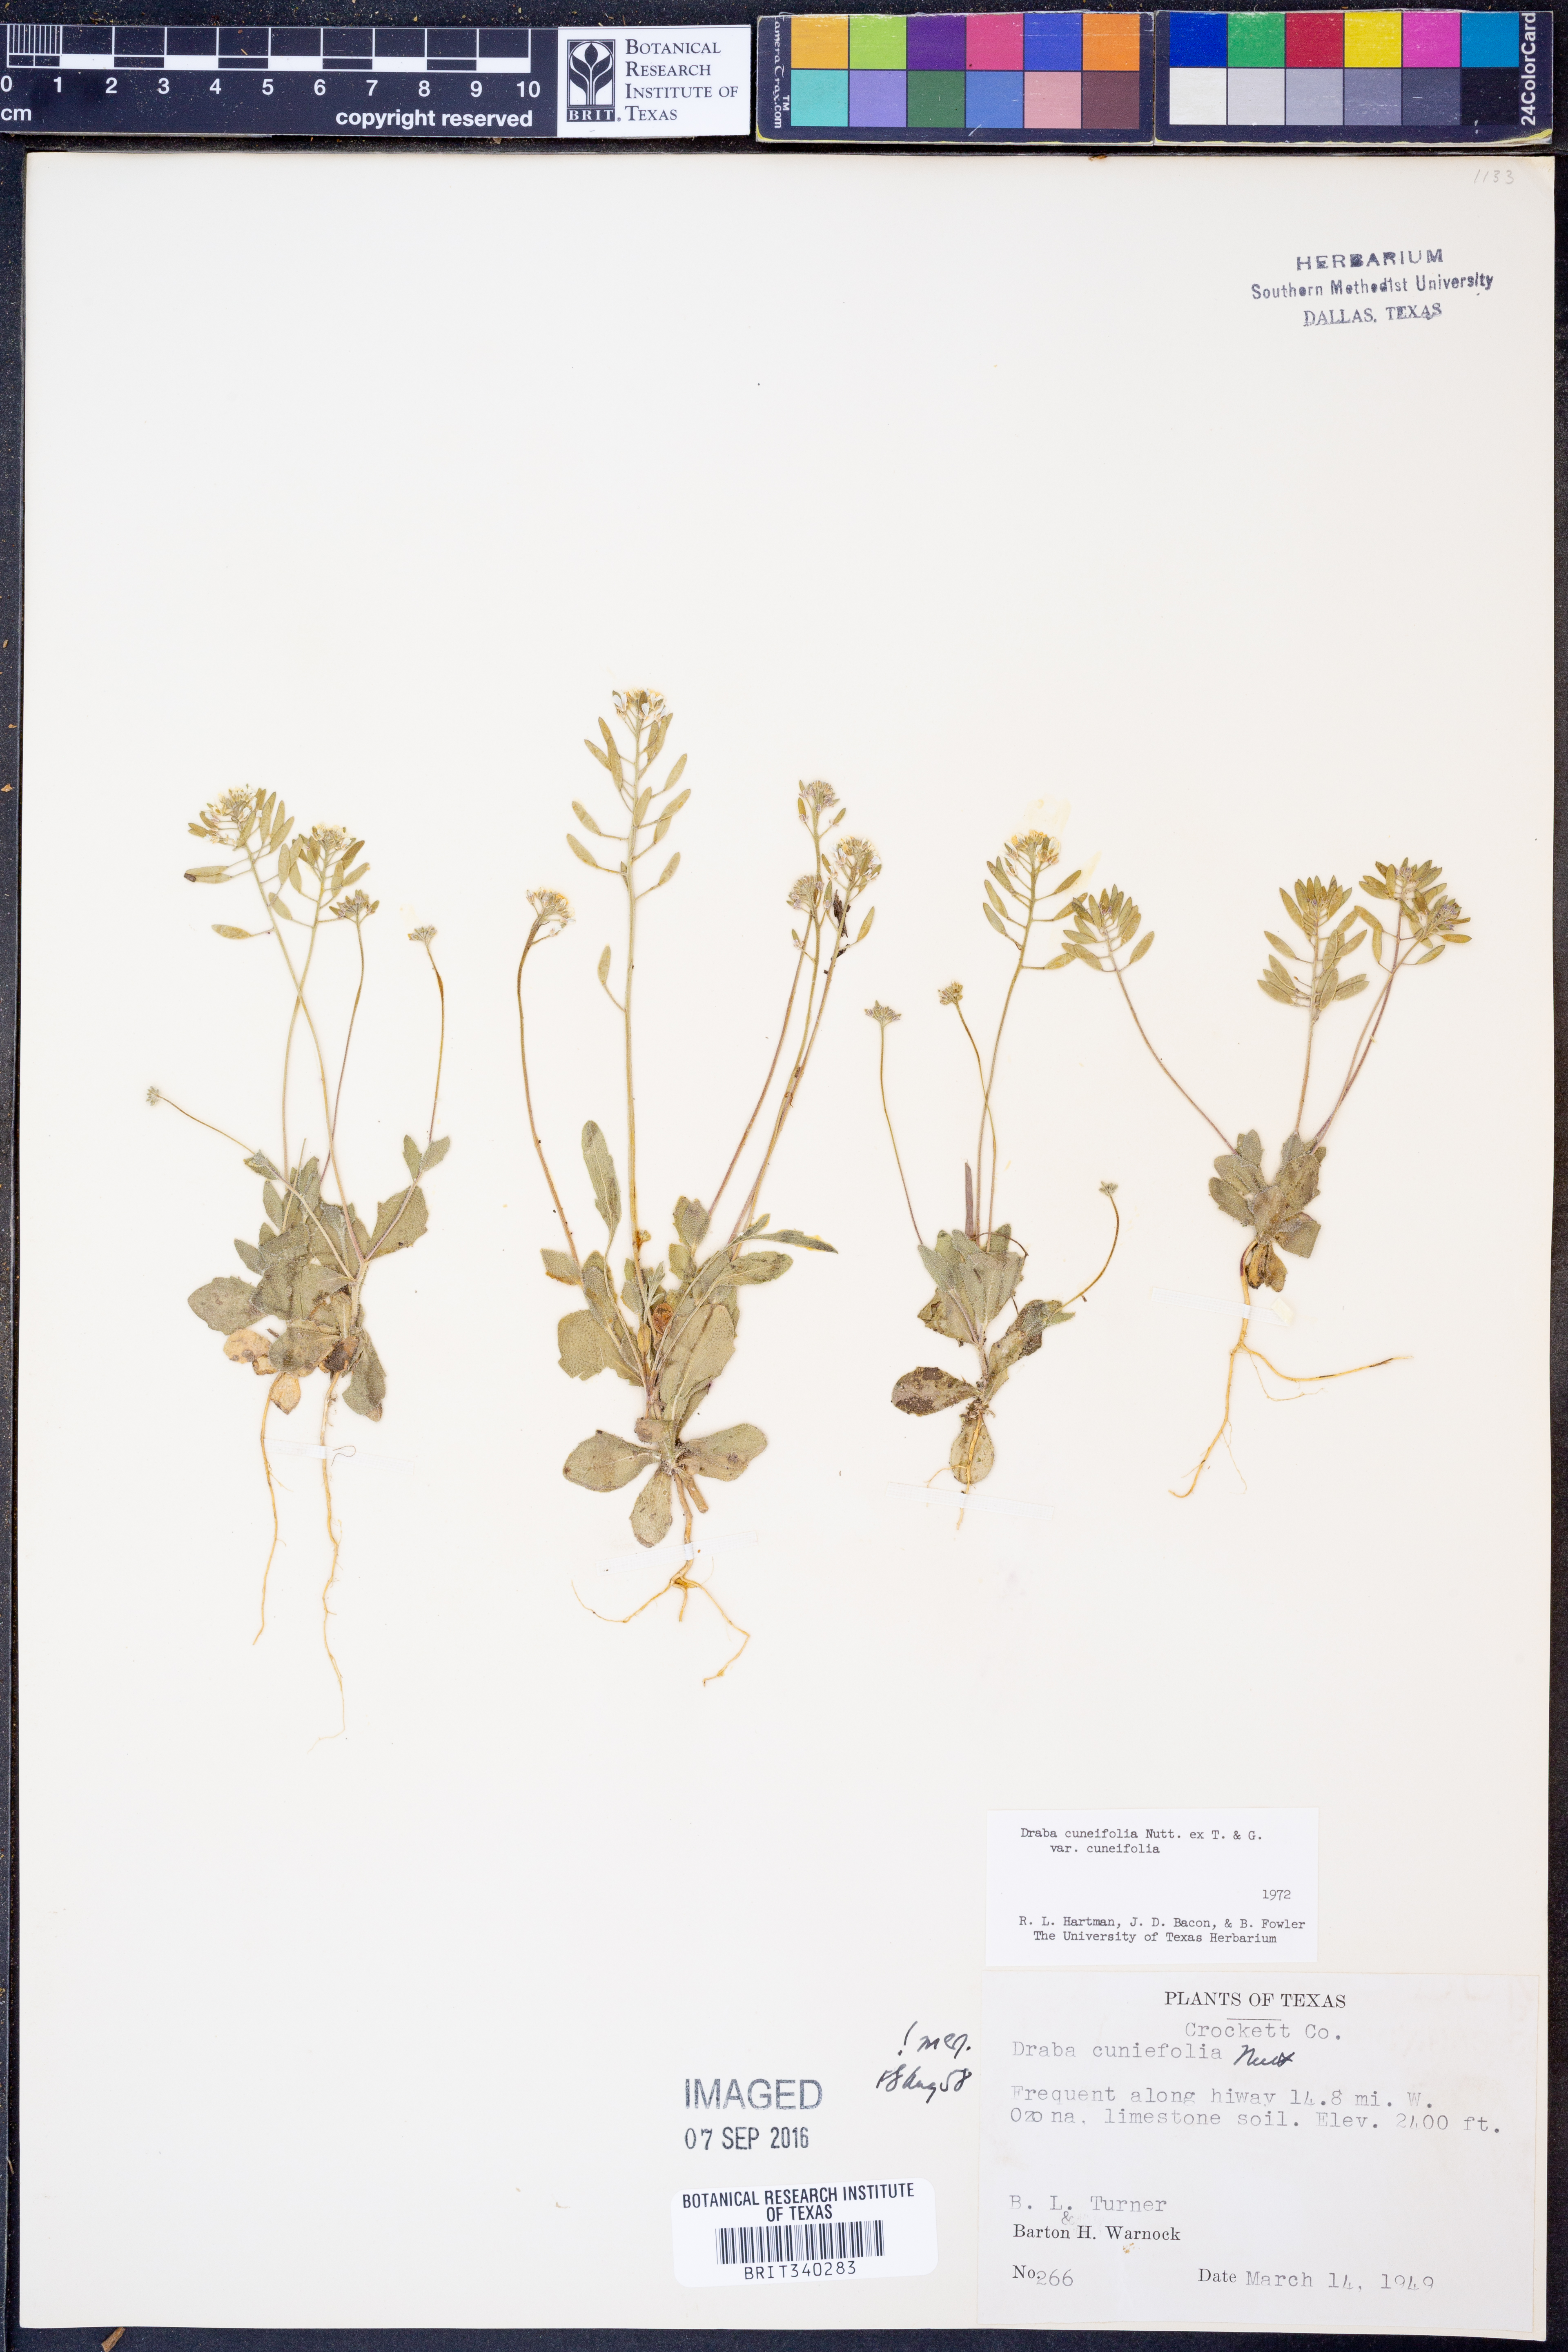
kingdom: Plantae
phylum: Tracheophyta
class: Magnoliopsida
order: Brassicales
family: Brassicaceae
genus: Tomostima
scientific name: Tomostima cuneifolia
